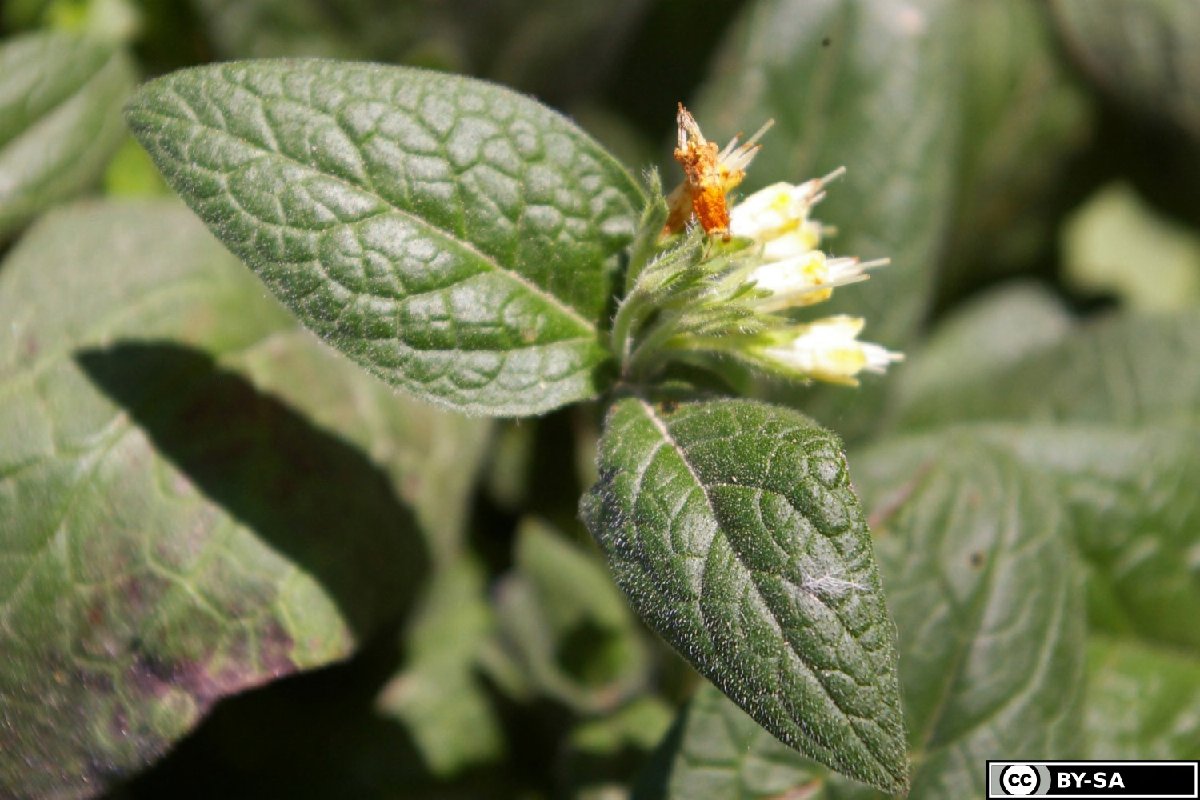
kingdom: Plantae
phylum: Tracheophyta
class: Magnoliopsida
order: Boraginales
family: Boraginaceae
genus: Symphytum
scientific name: Symphytum bulbosum
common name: Bulbous comfrey
